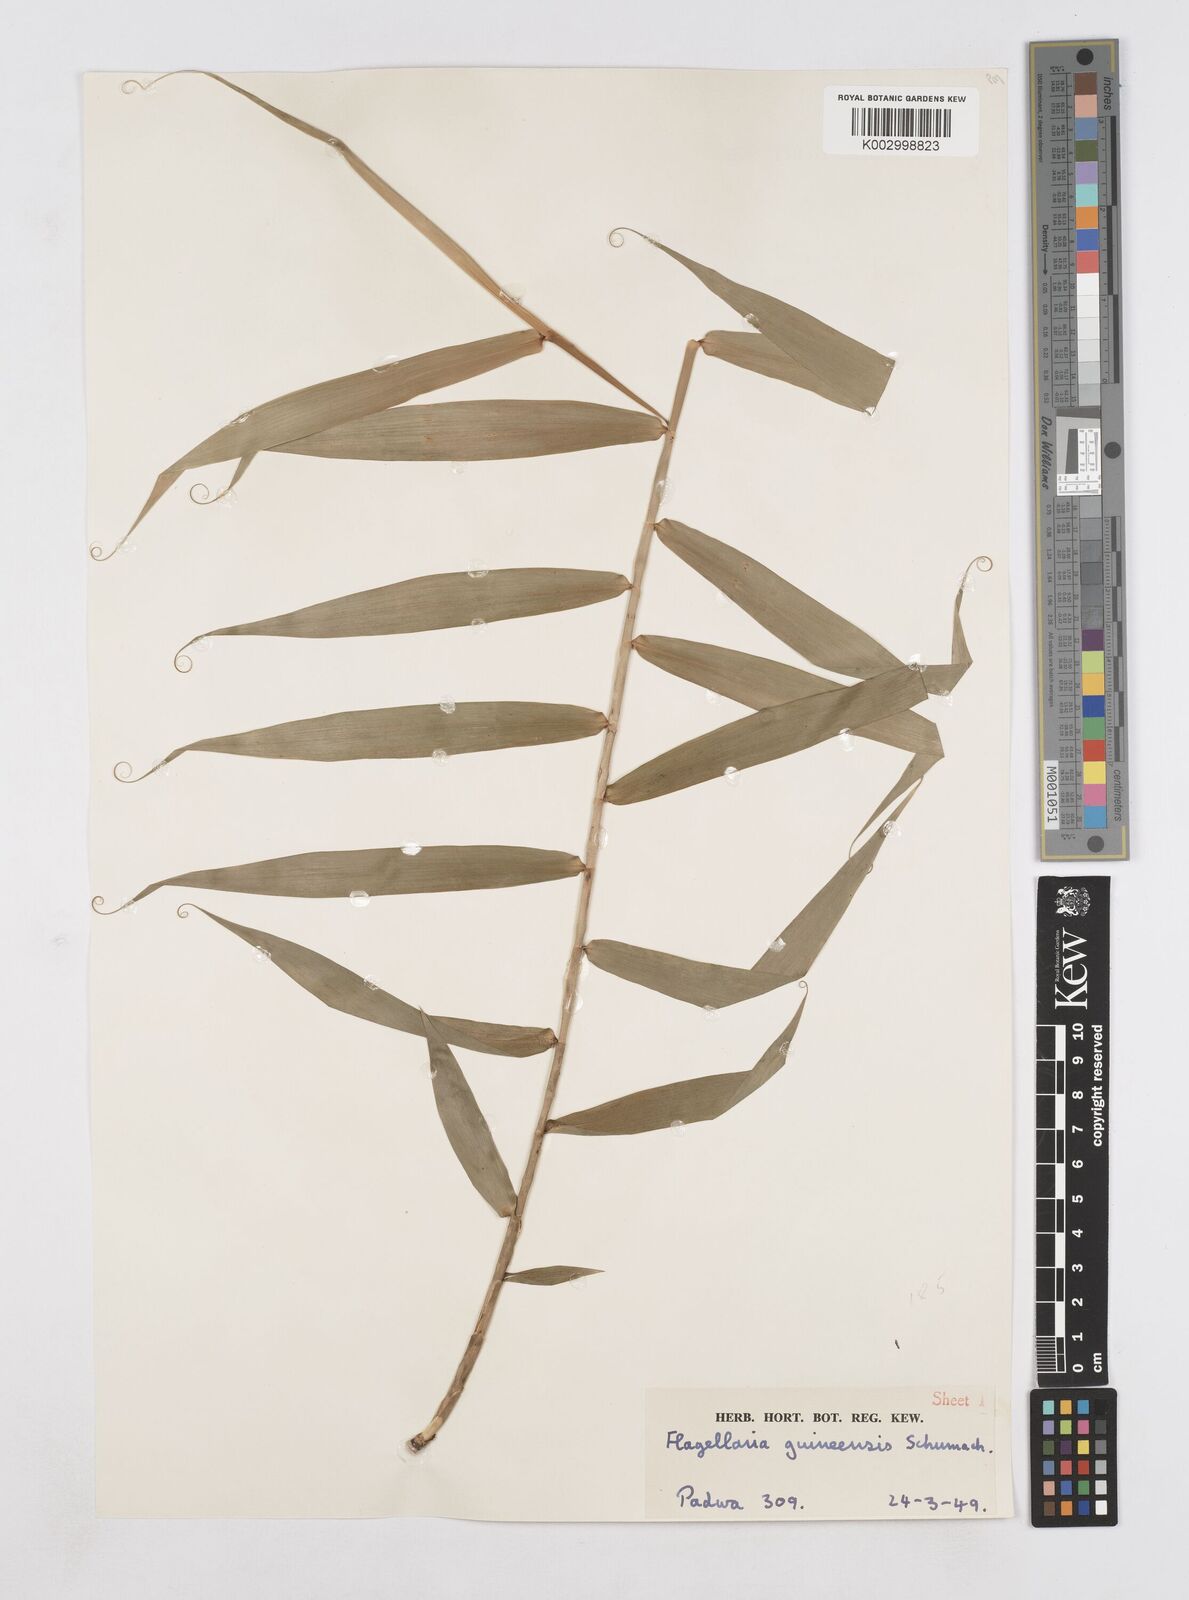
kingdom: Plantae
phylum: Tracheophyta
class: Liliopsida
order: Poales
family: Flagellariaceae
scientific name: Flagellariaceae
